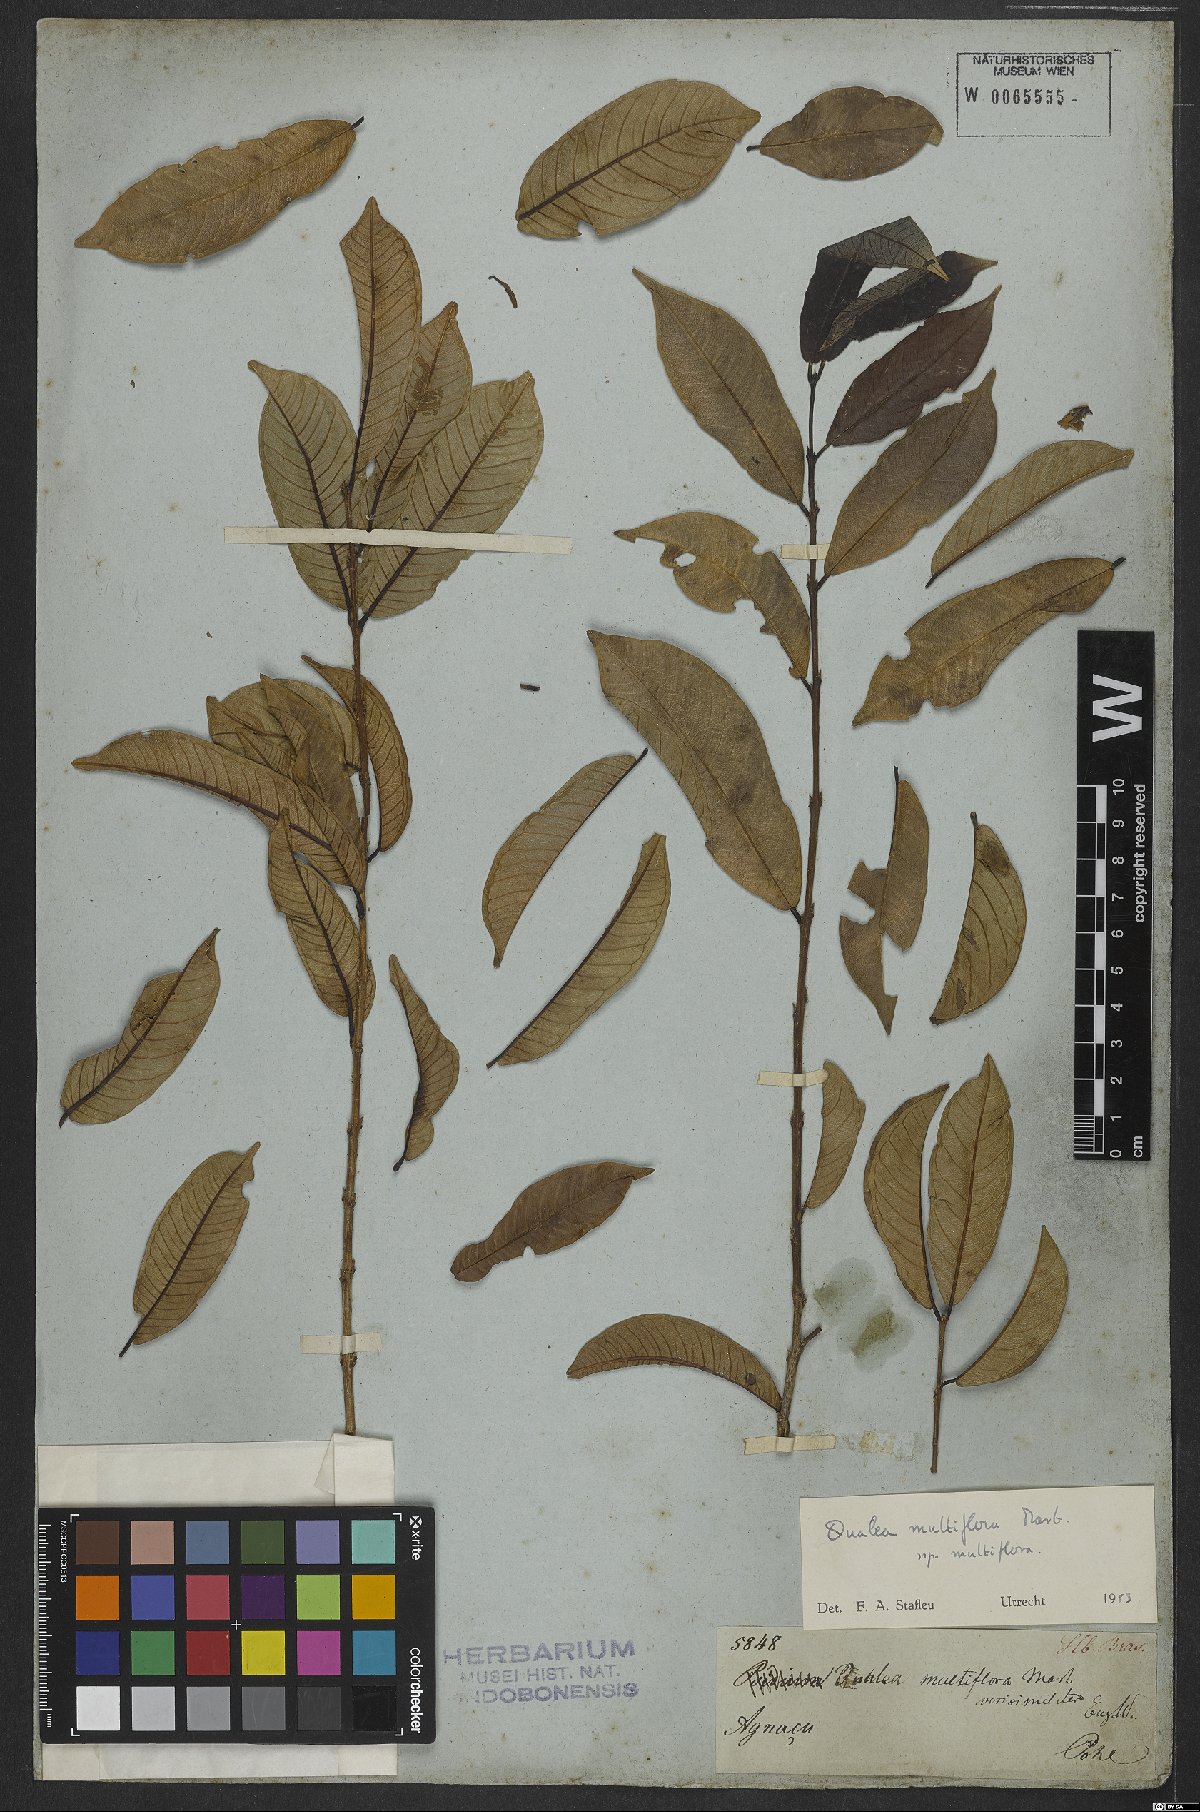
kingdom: Plantae
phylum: Tracheophyta
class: Magnoliopsida
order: Myrtales
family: Vochysiaceae
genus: Qualea
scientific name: Qualea multiflora
